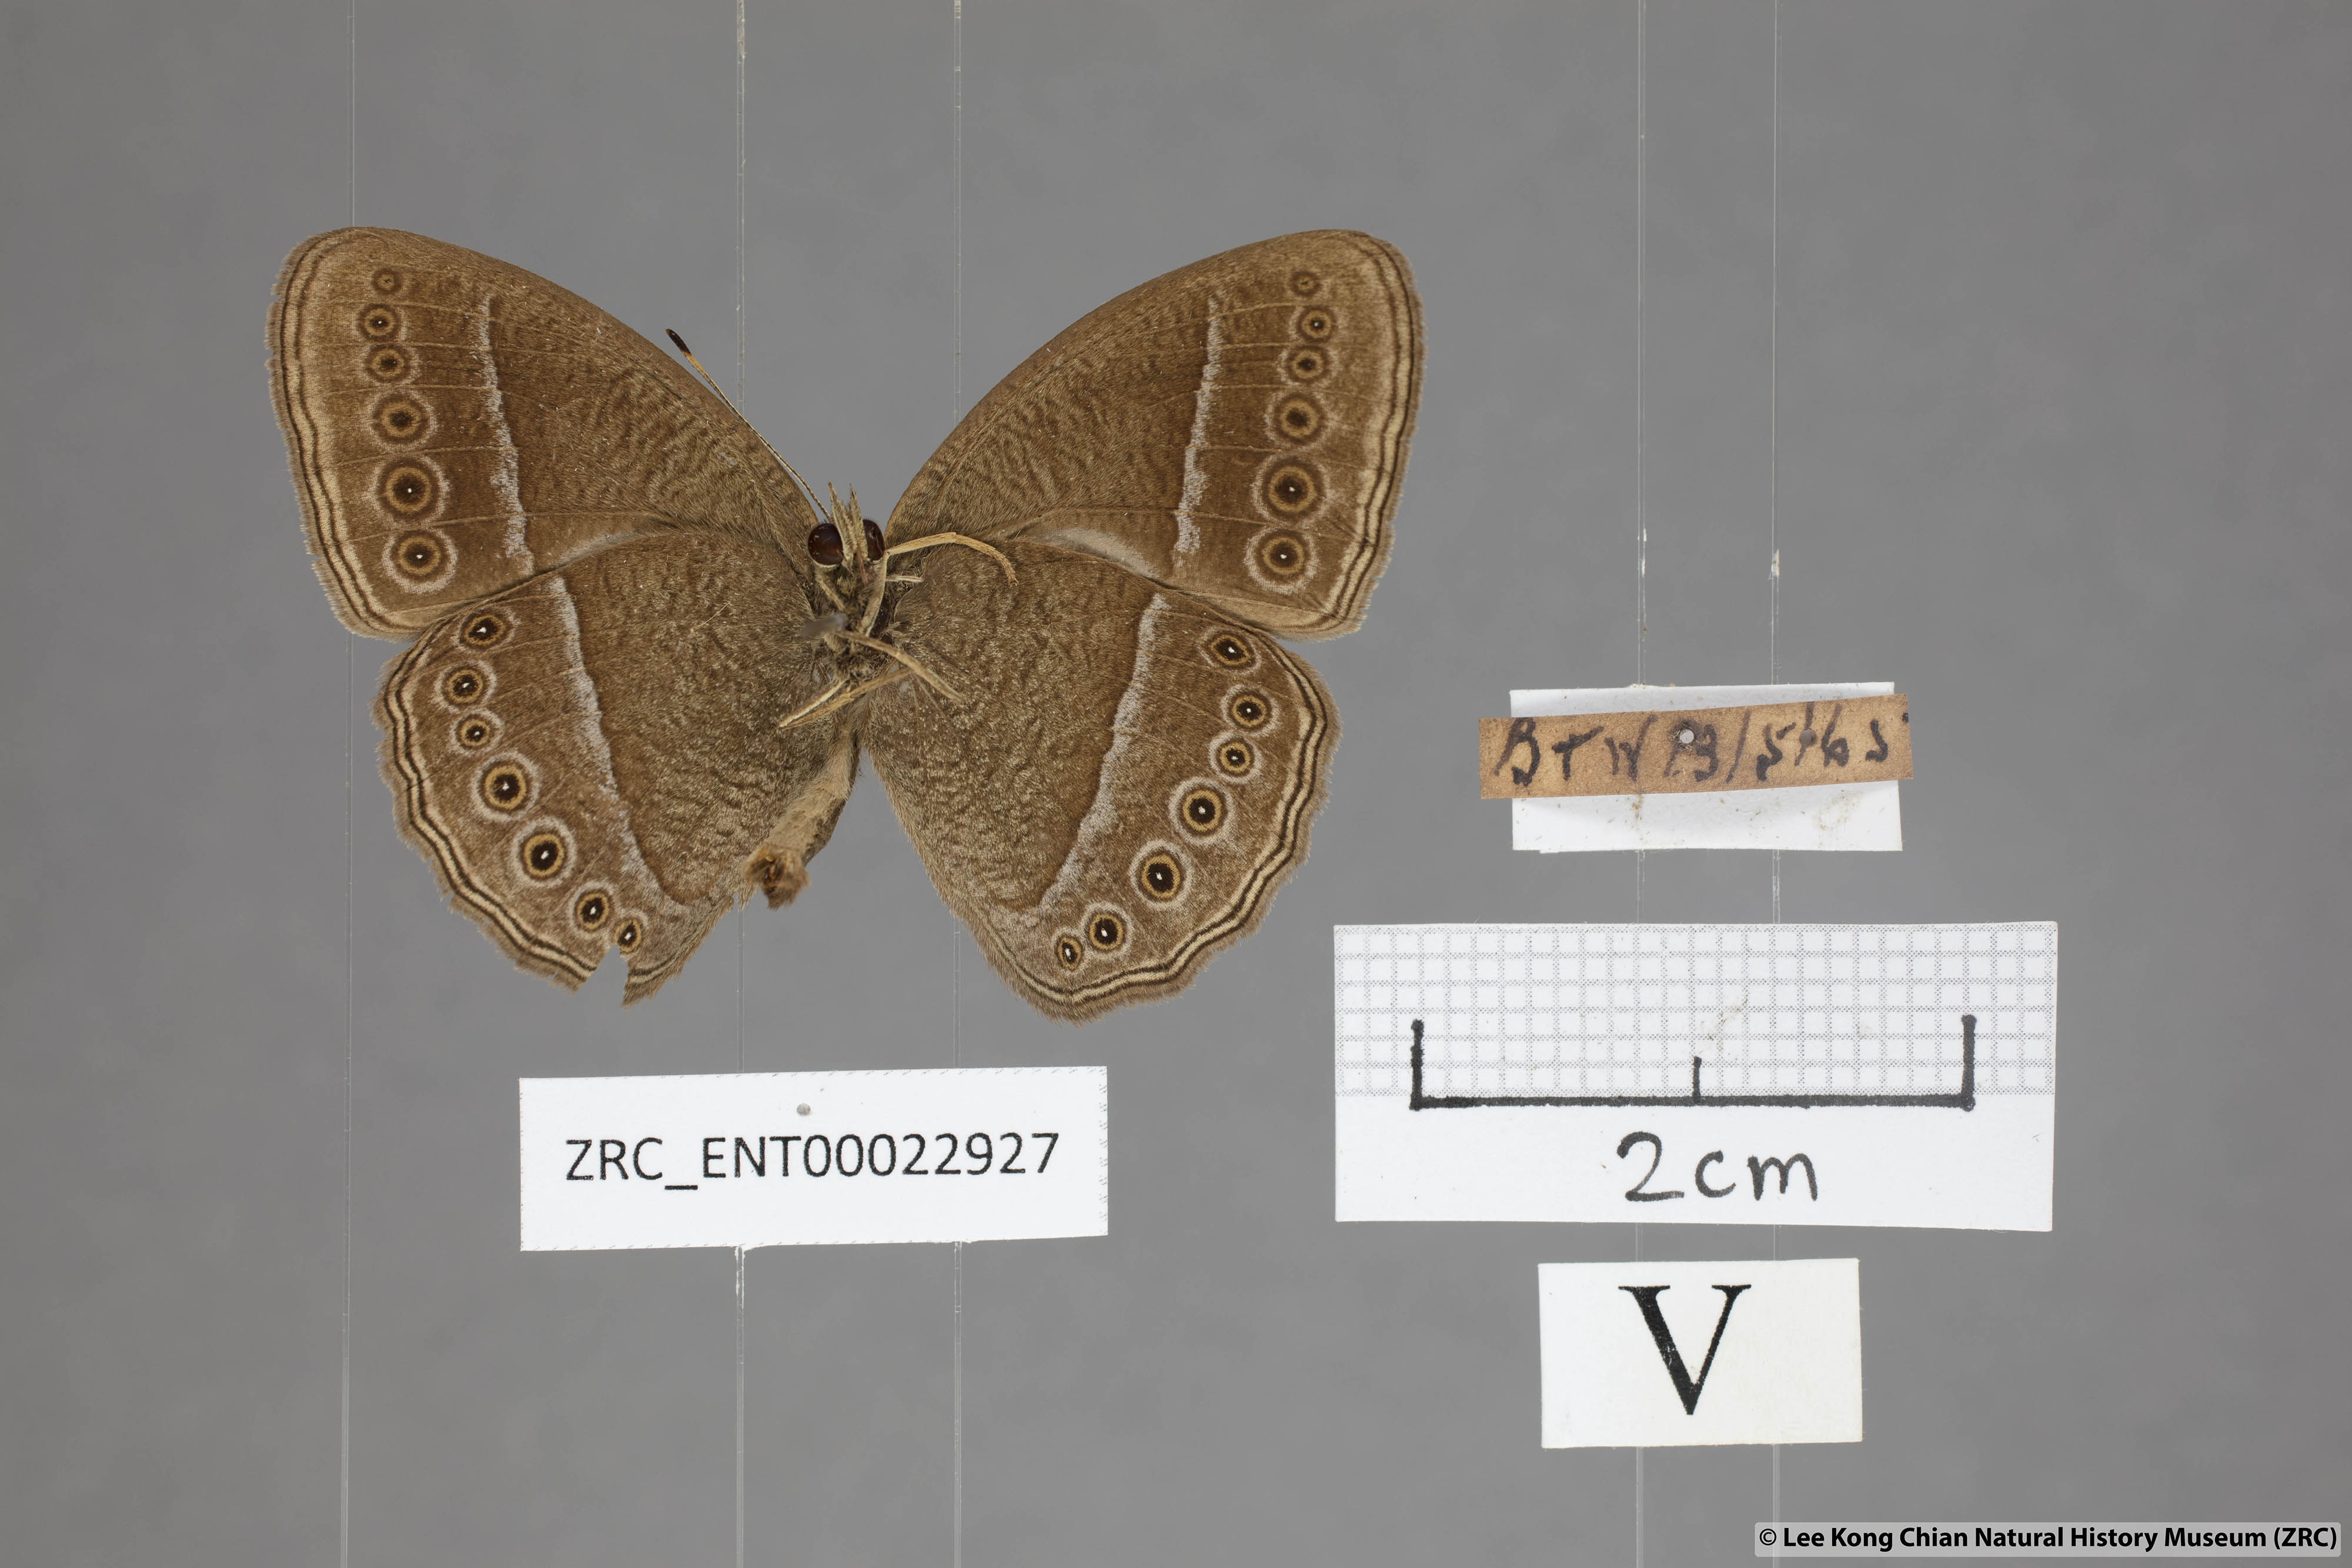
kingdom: Animalia
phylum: Arthropoda
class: Insecta
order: Lepidoptera
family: Nymphalidae
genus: Mycalesis
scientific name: Mycalesis janardana
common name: Common bush brown
